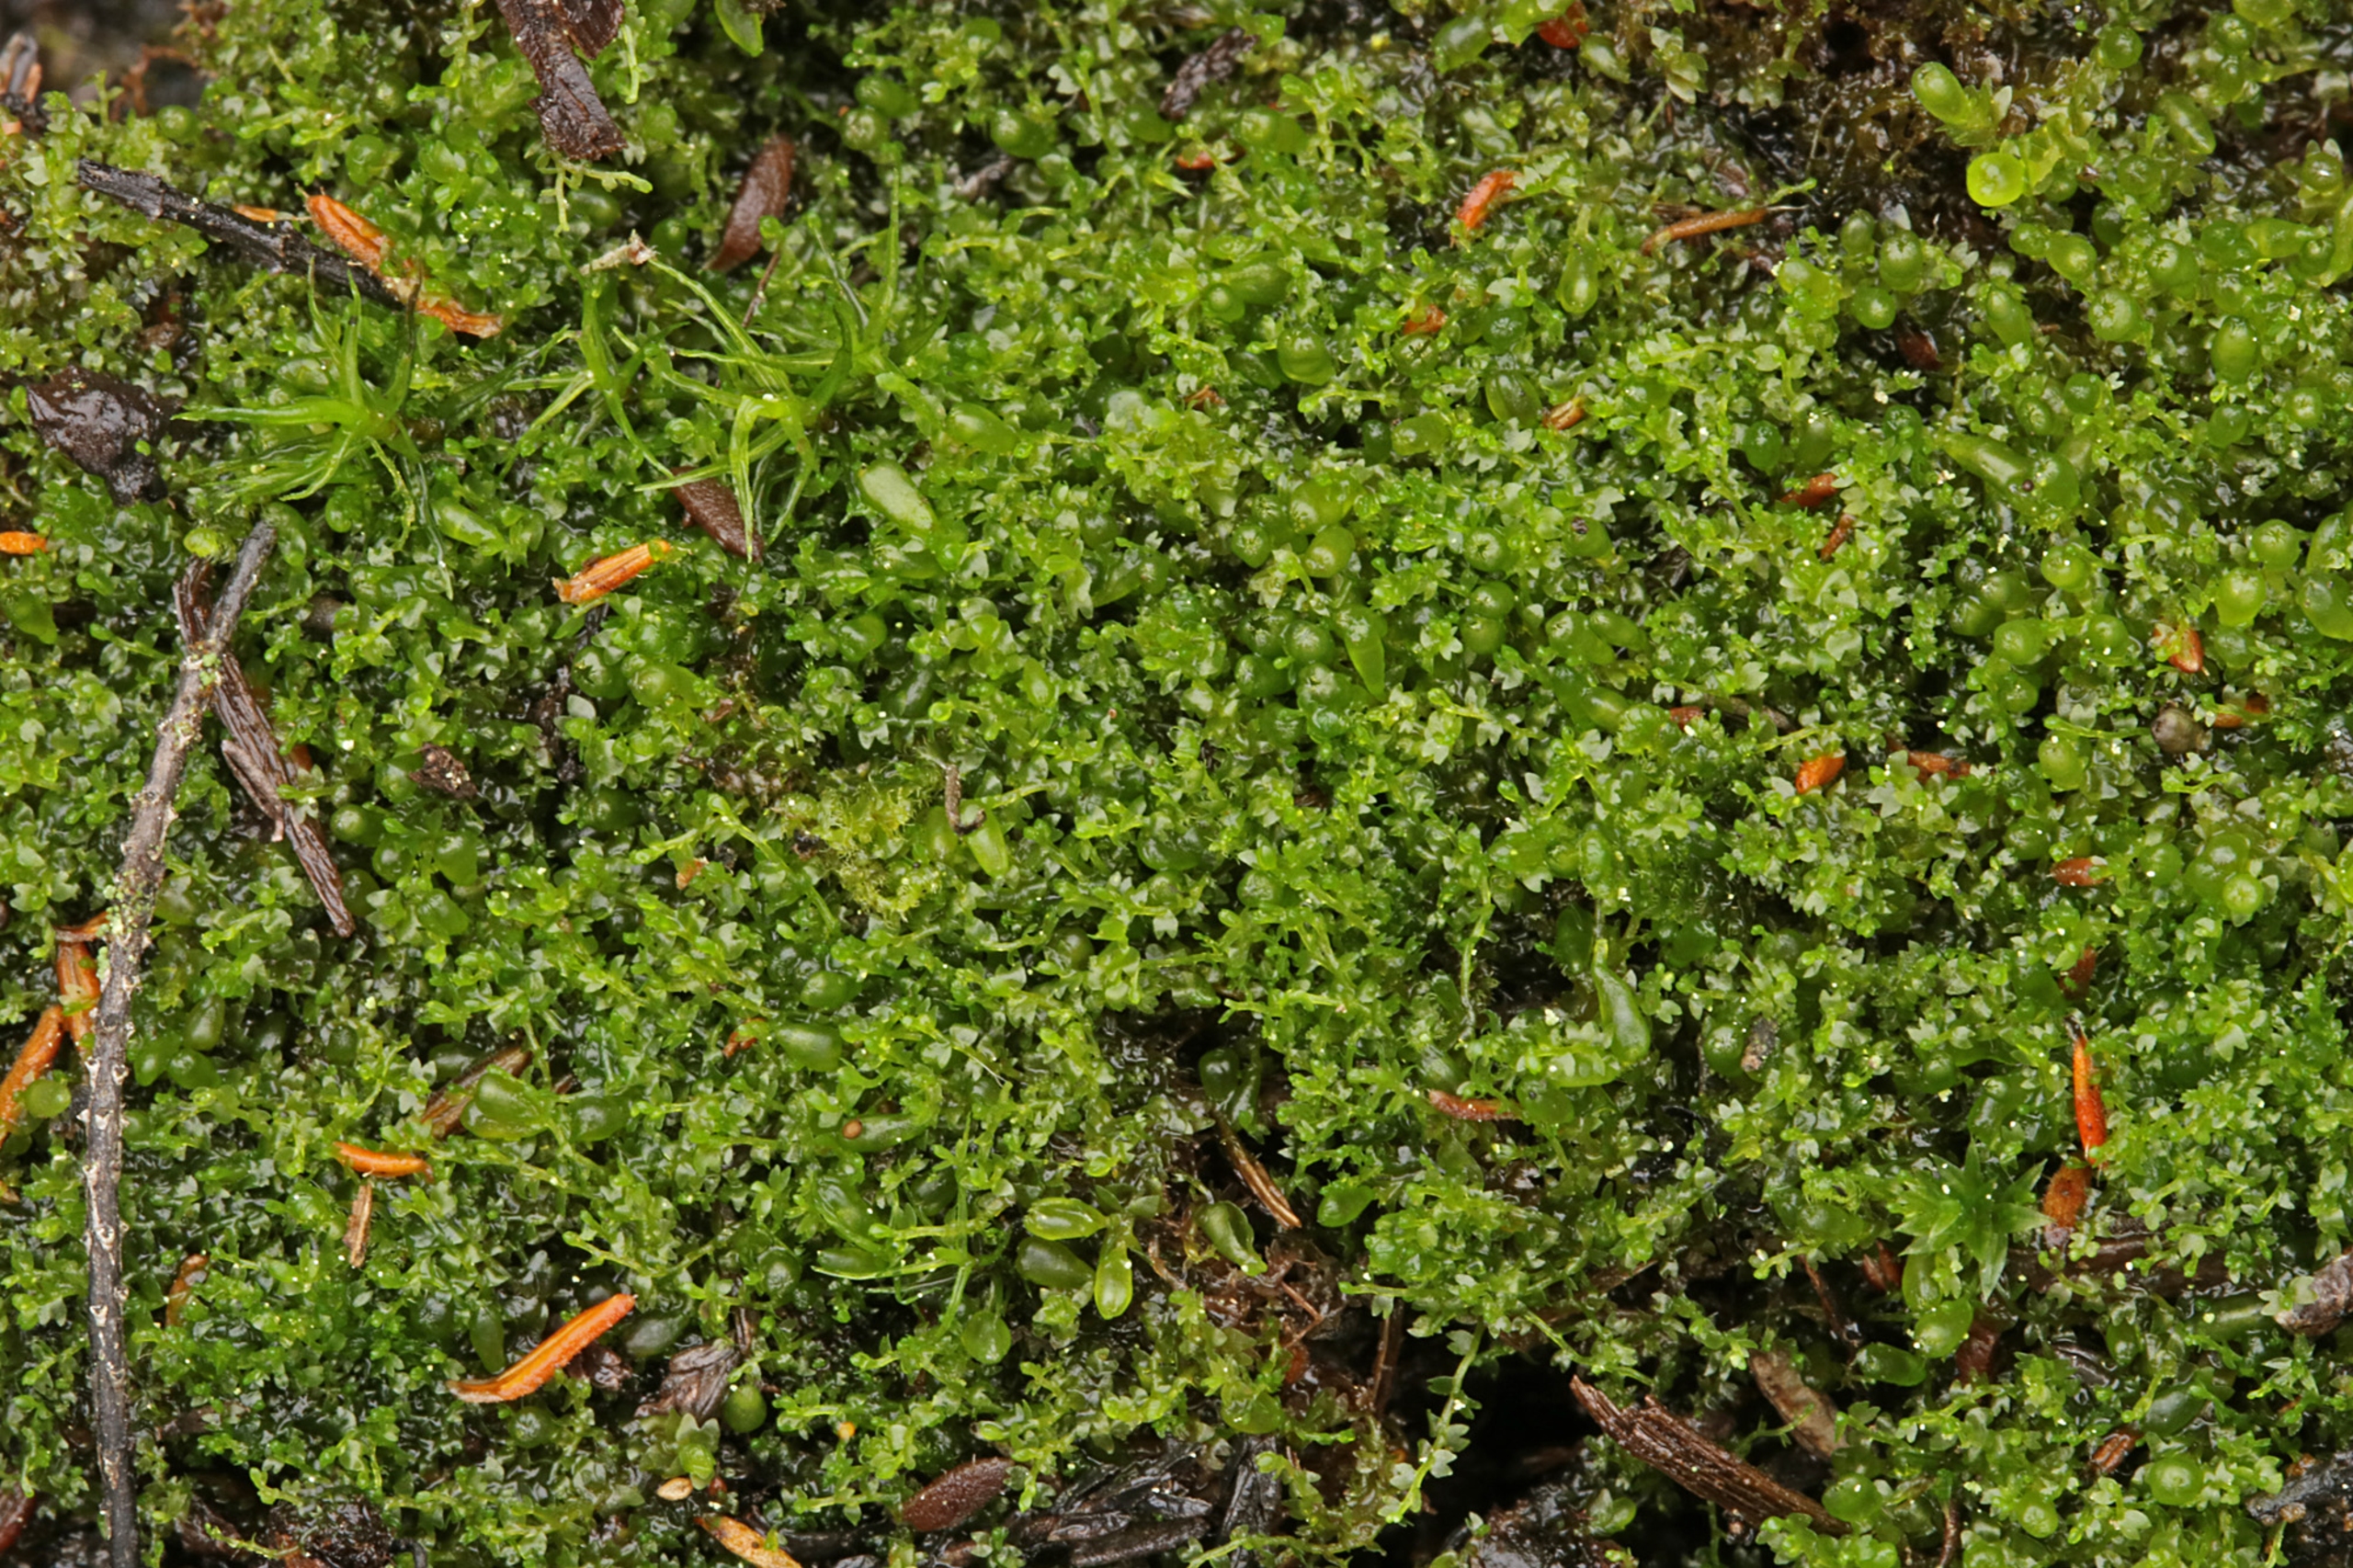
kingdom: Plantae
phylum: Marchantiophyta
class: Jungermanniopsida
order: Jungermanniales
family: Anastrophyllaceae
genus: Gymnocolea
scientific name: Gymnocolea inflata
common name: Opblæst blæremos
